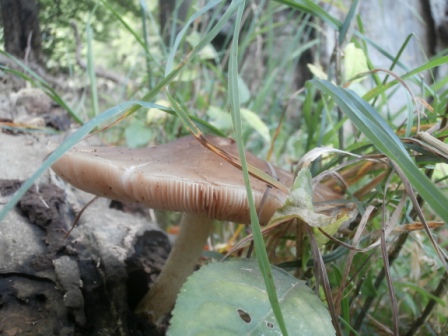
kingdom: Fungi
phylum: Basidiomycota
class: Agaricomycetes
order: Agaricales
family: Pluteaceae
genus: Pluteus
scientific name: Pluteus cervinus
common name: sodfarvet skærmhat
